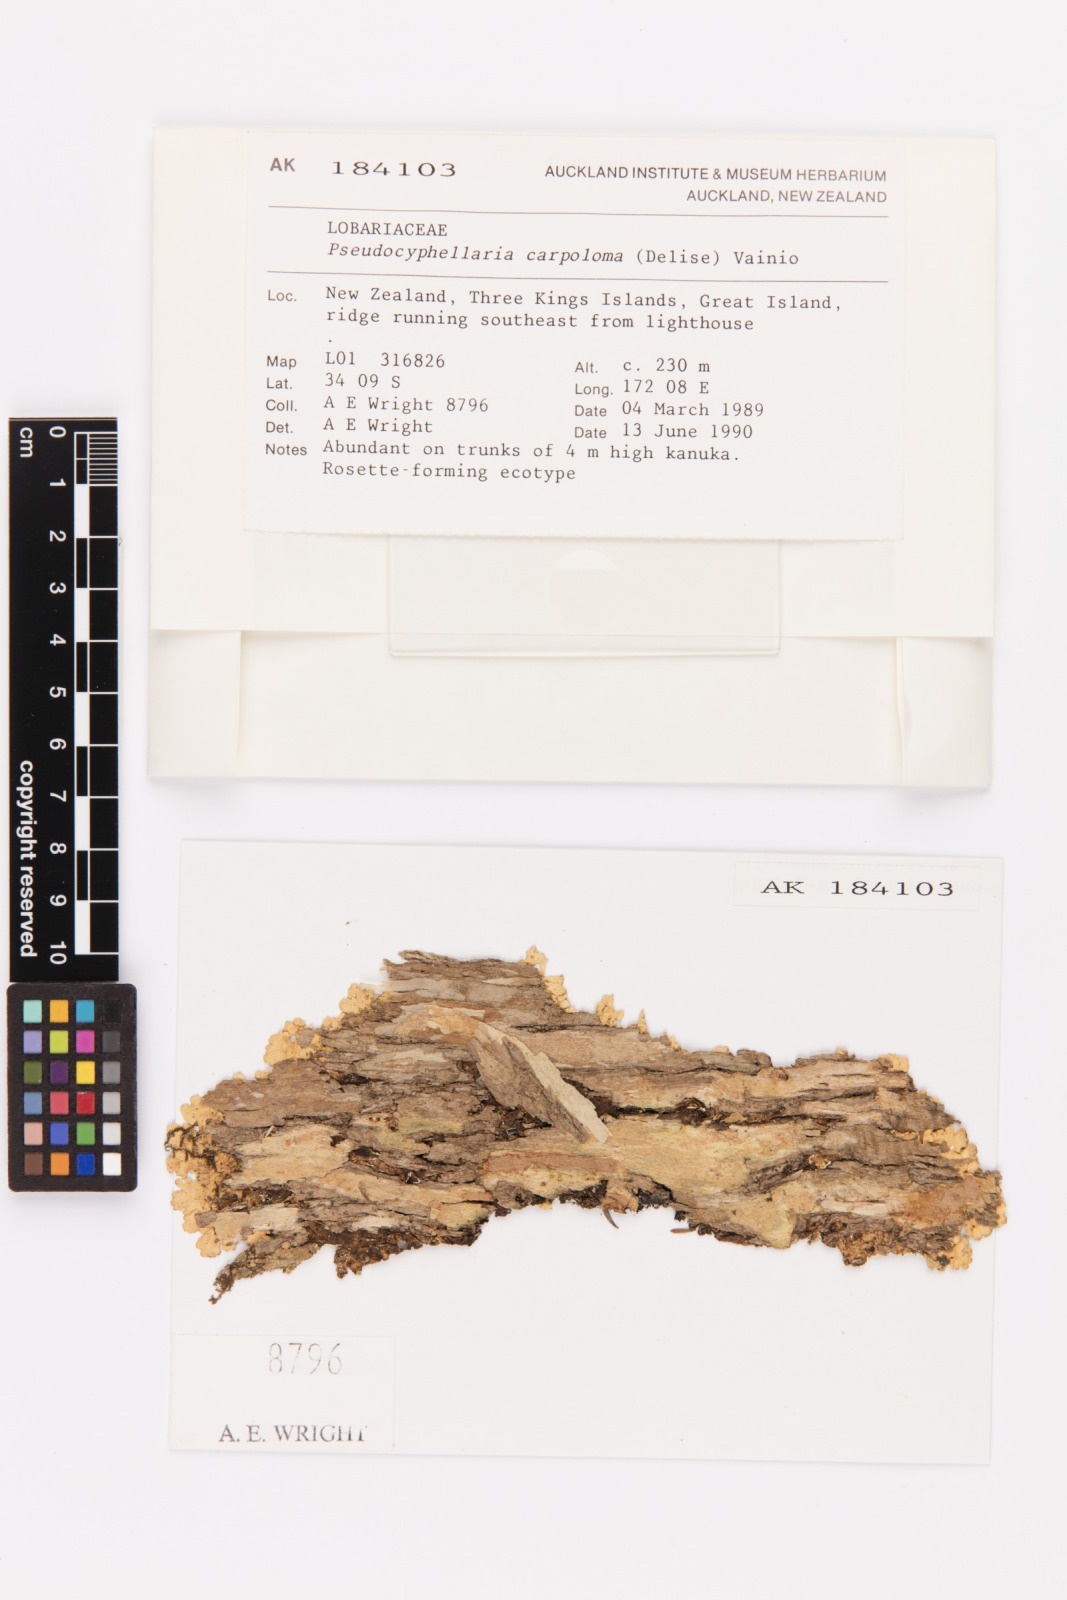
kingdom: Fungi
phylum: Ascomycota
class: Lecanoromycetes
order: Peltigerales
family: Lobariaceae
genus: Pseudocyphellaria
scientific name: Pseudocyphellaria carpoloma
